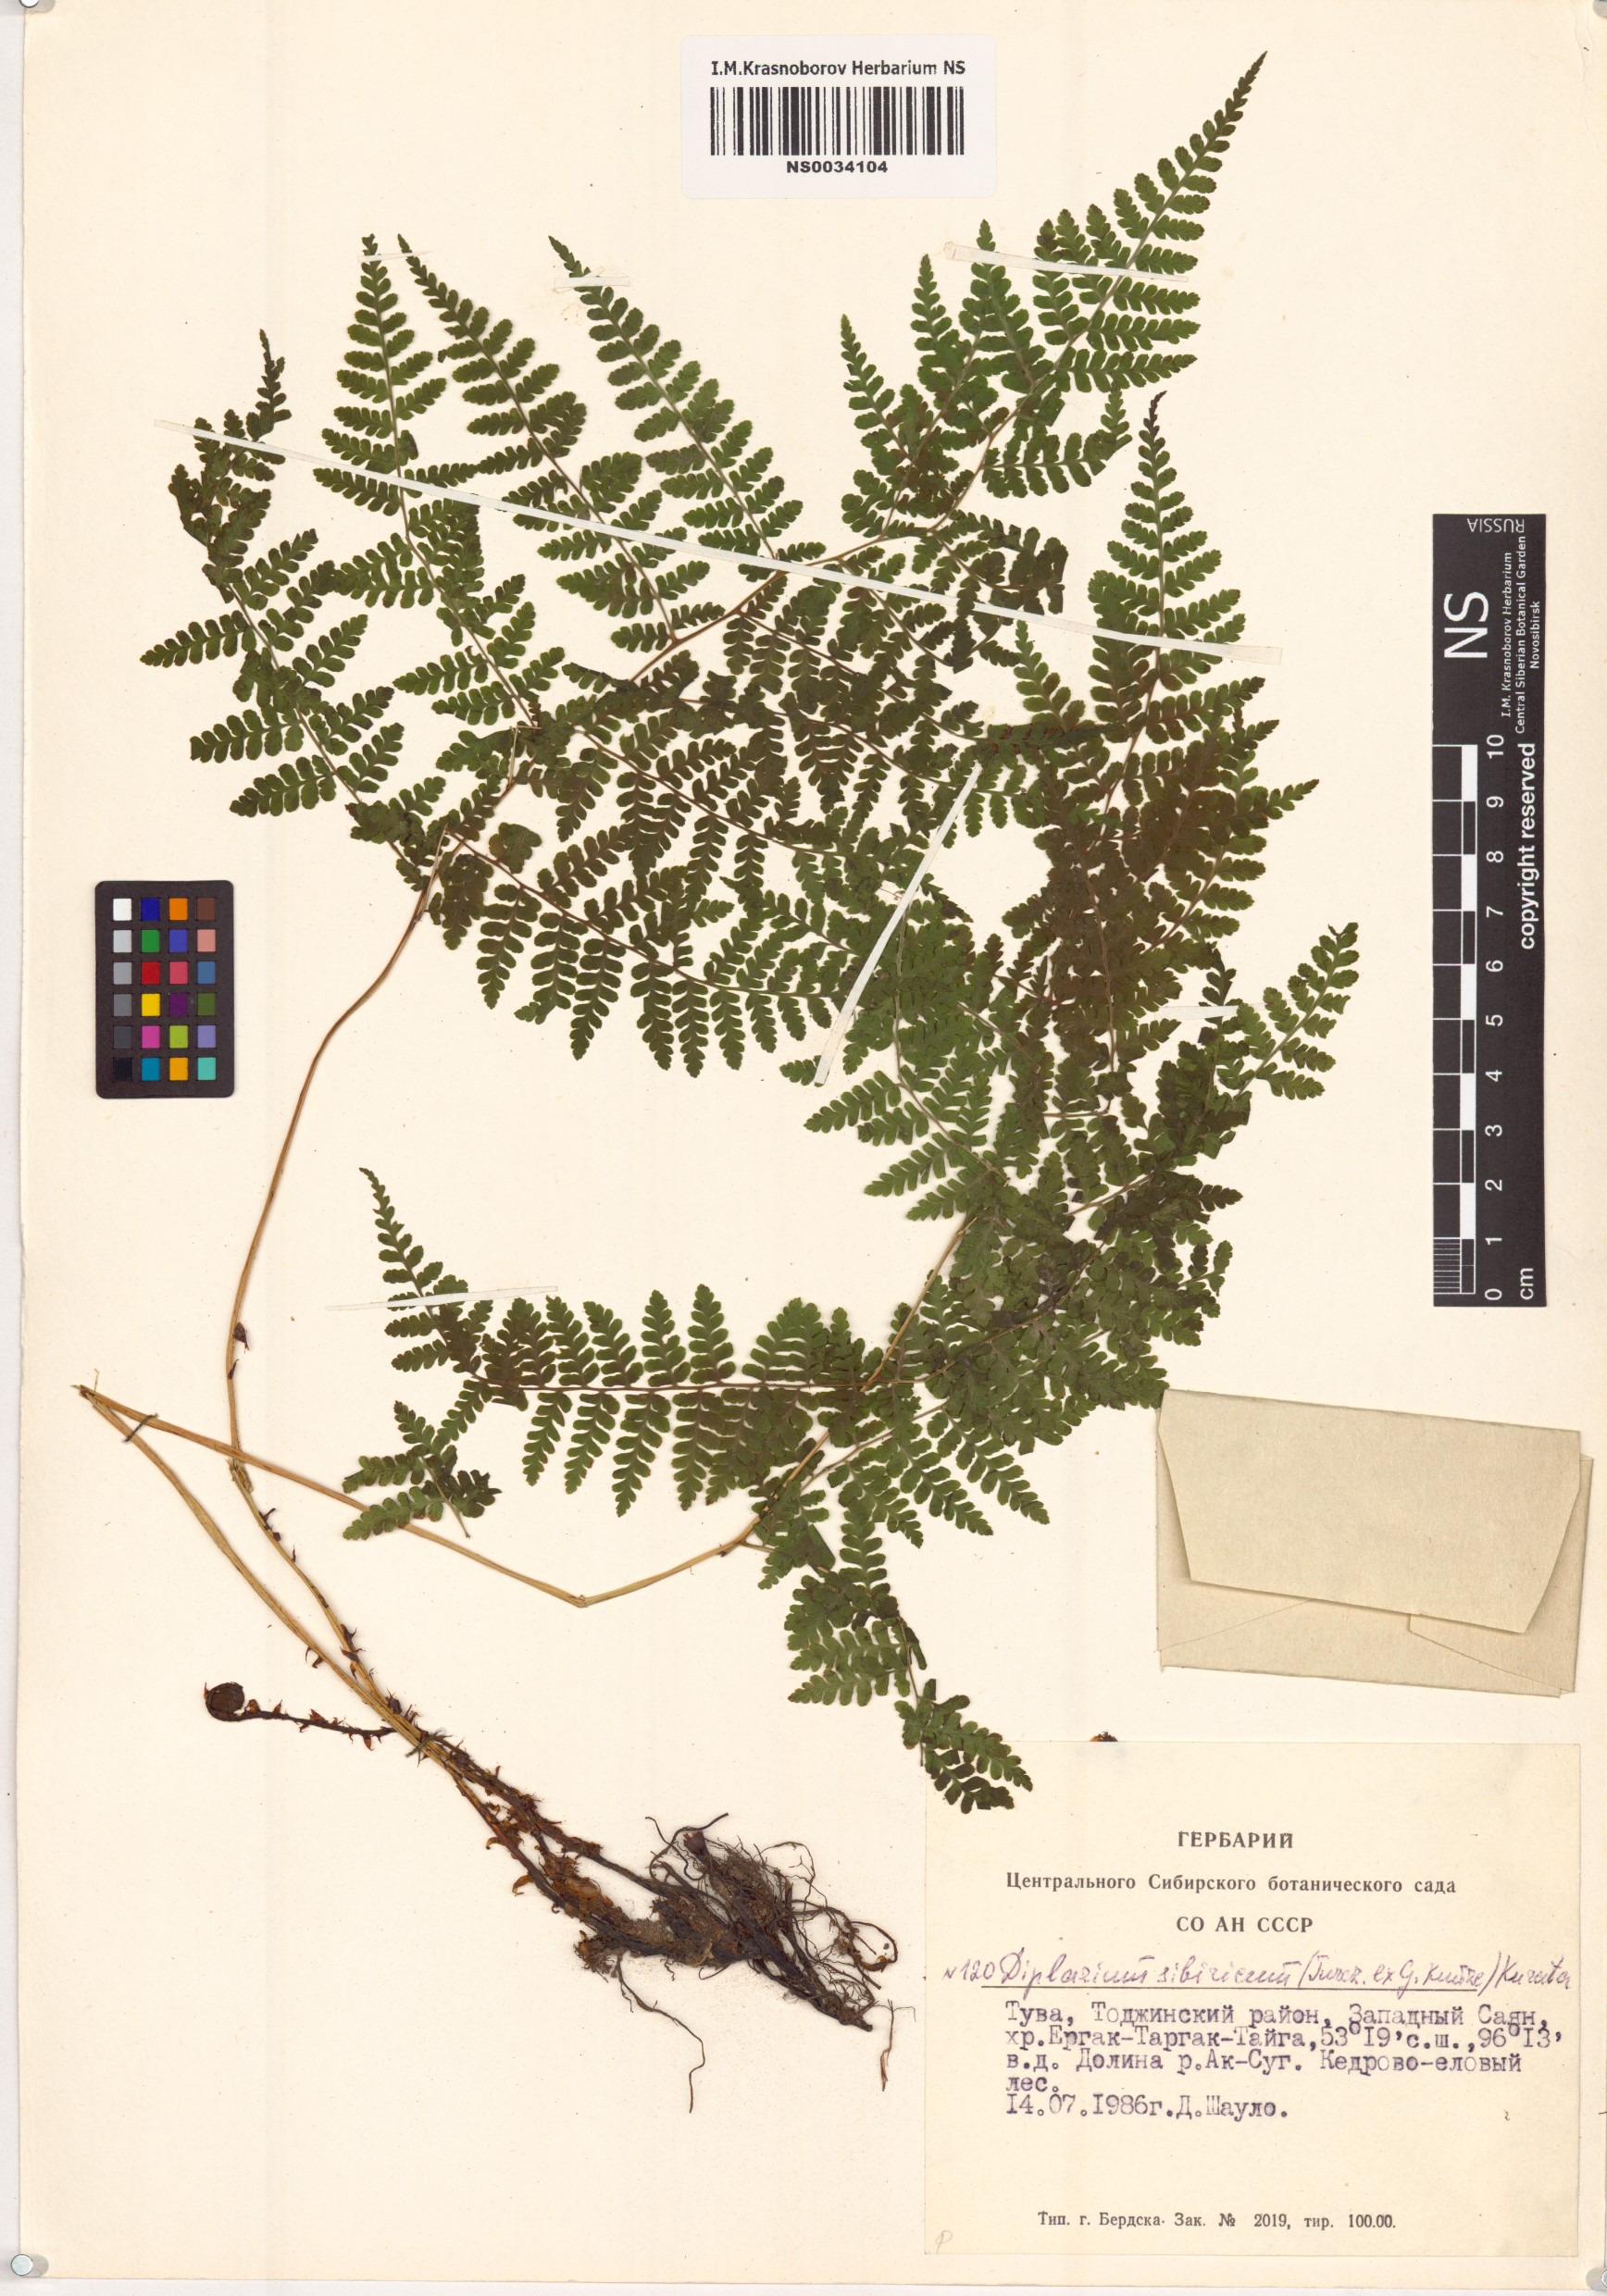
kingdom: Plantae
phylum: Tracheophyta
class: Polypodiopsida
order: Polypodiales
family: Athyriaceae
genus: Diplazium
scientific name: Diplazium sibiricum
